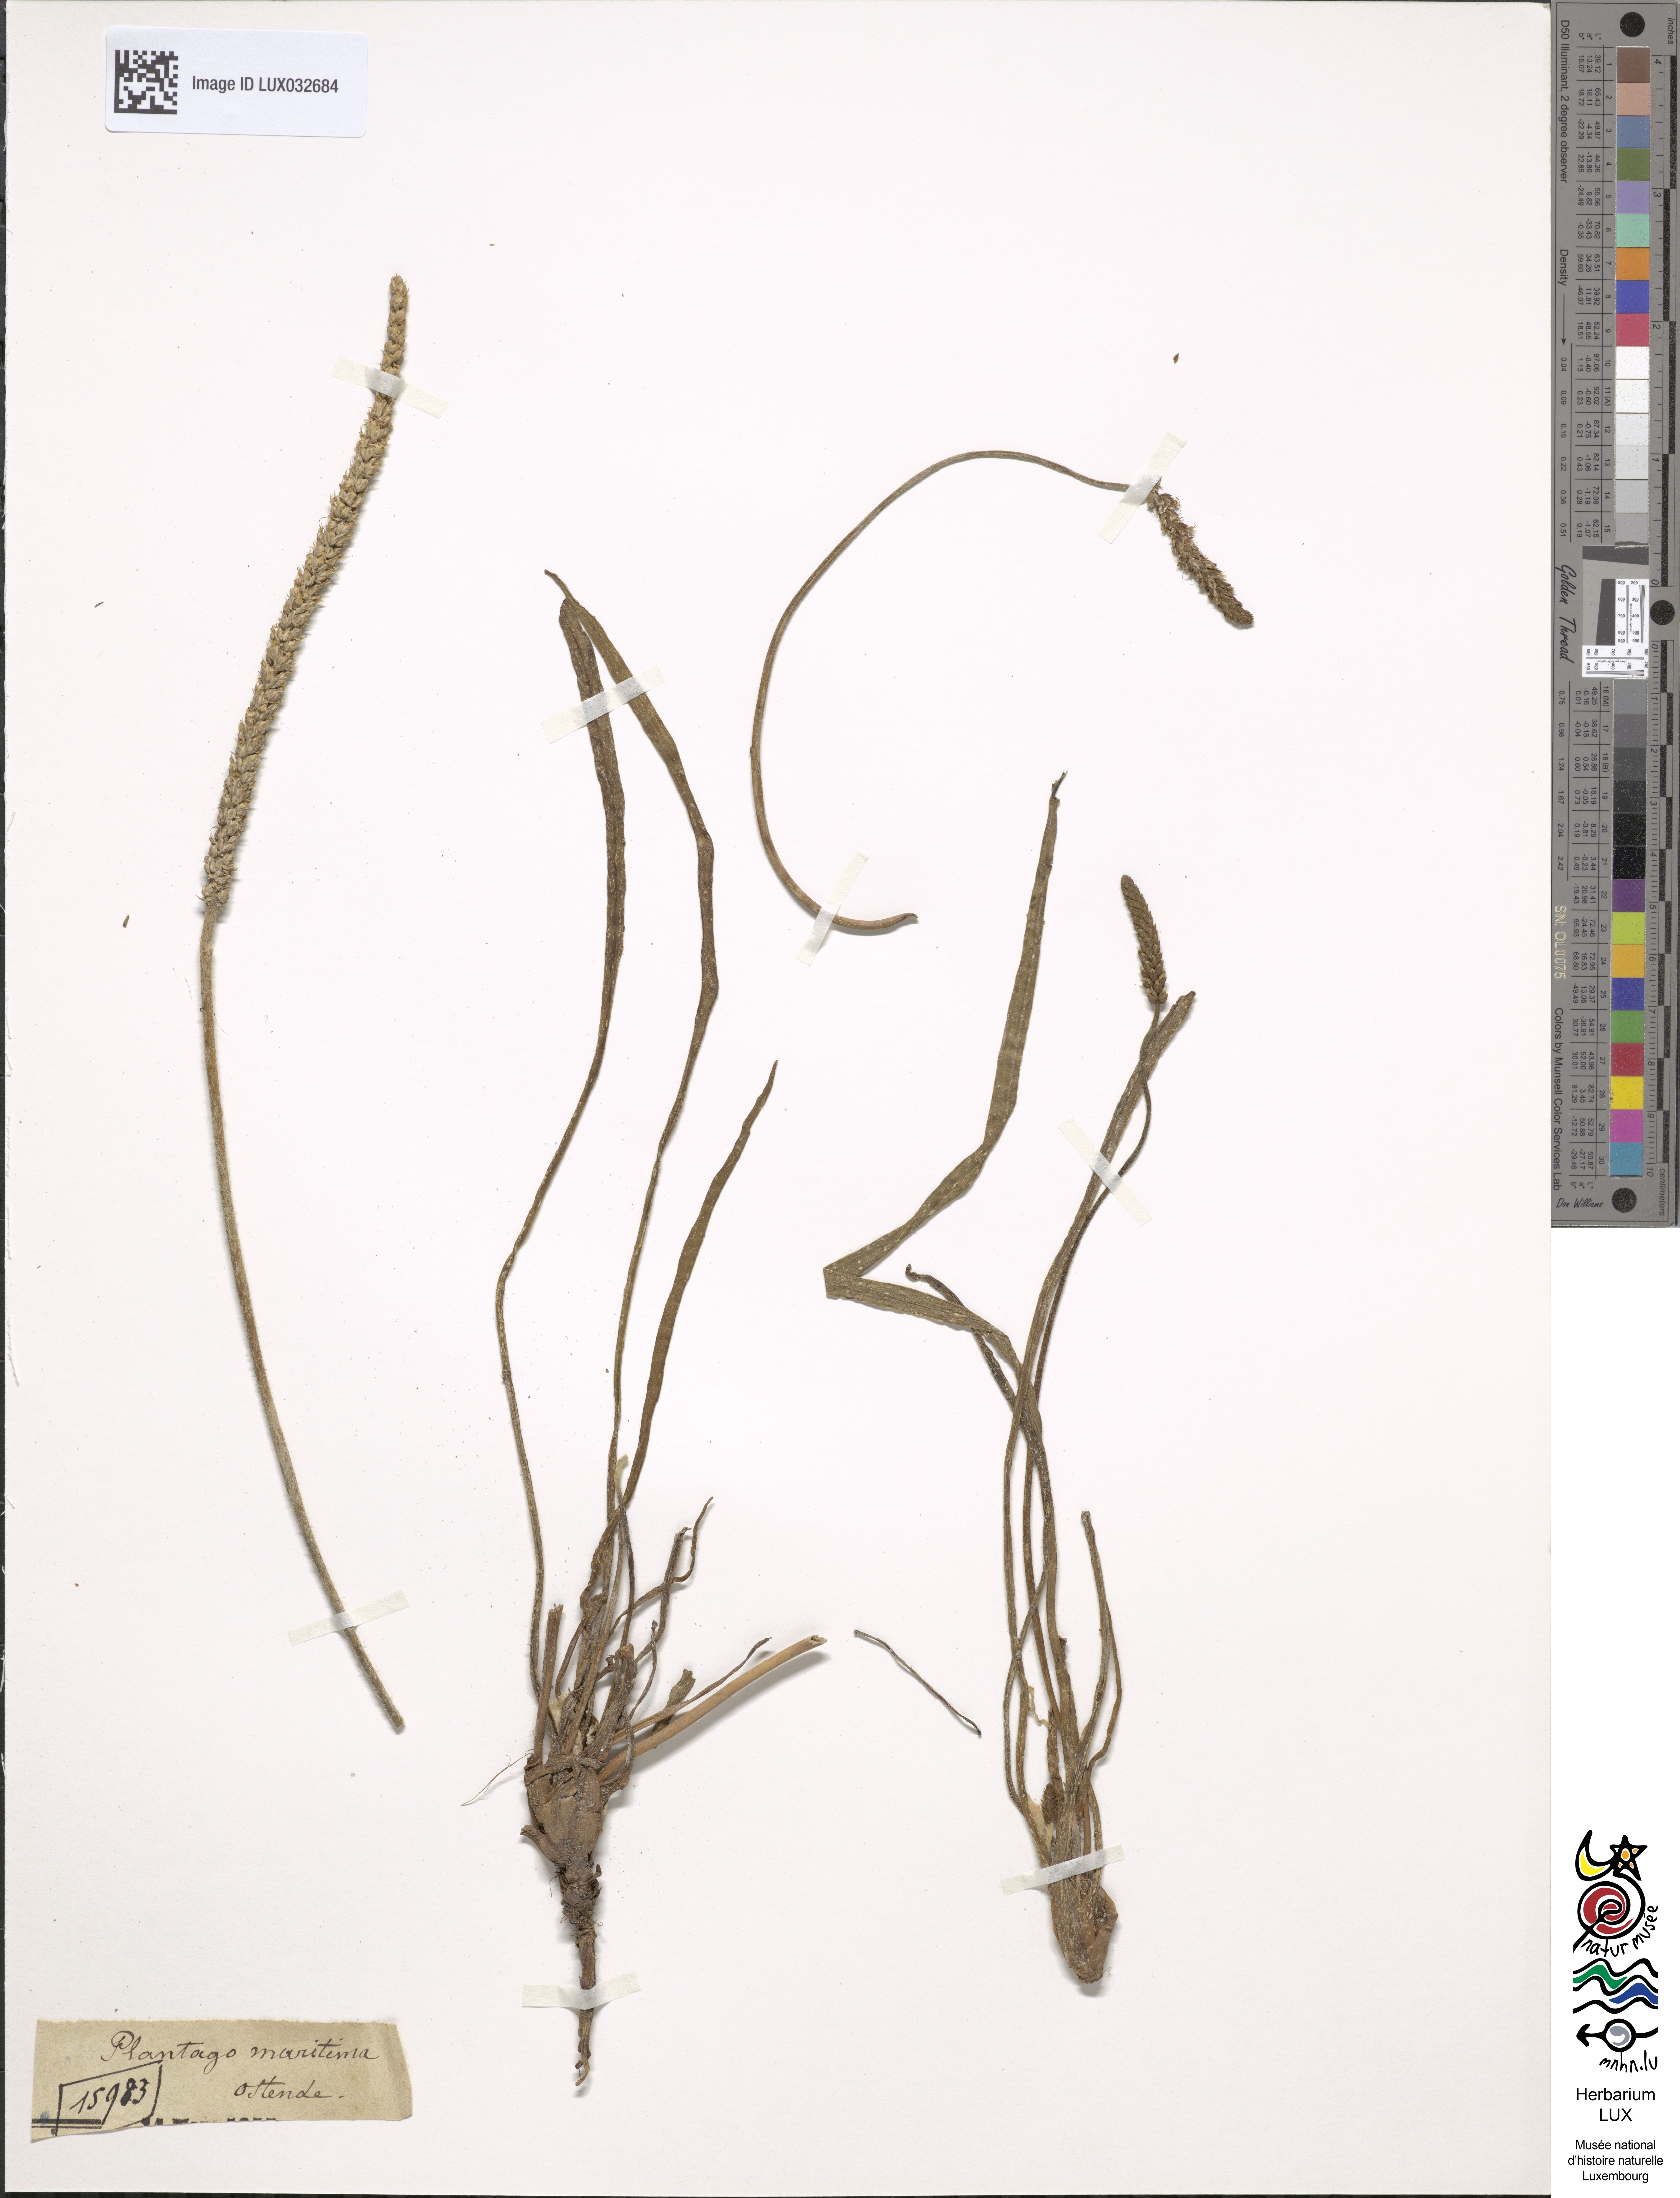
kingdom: Plantae
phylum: Tracheophyta
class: Magnoliopsida
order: Lamiales
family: Plantaginaceae
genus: Plantago
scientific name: Plantago maritima
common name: Sea plantain
